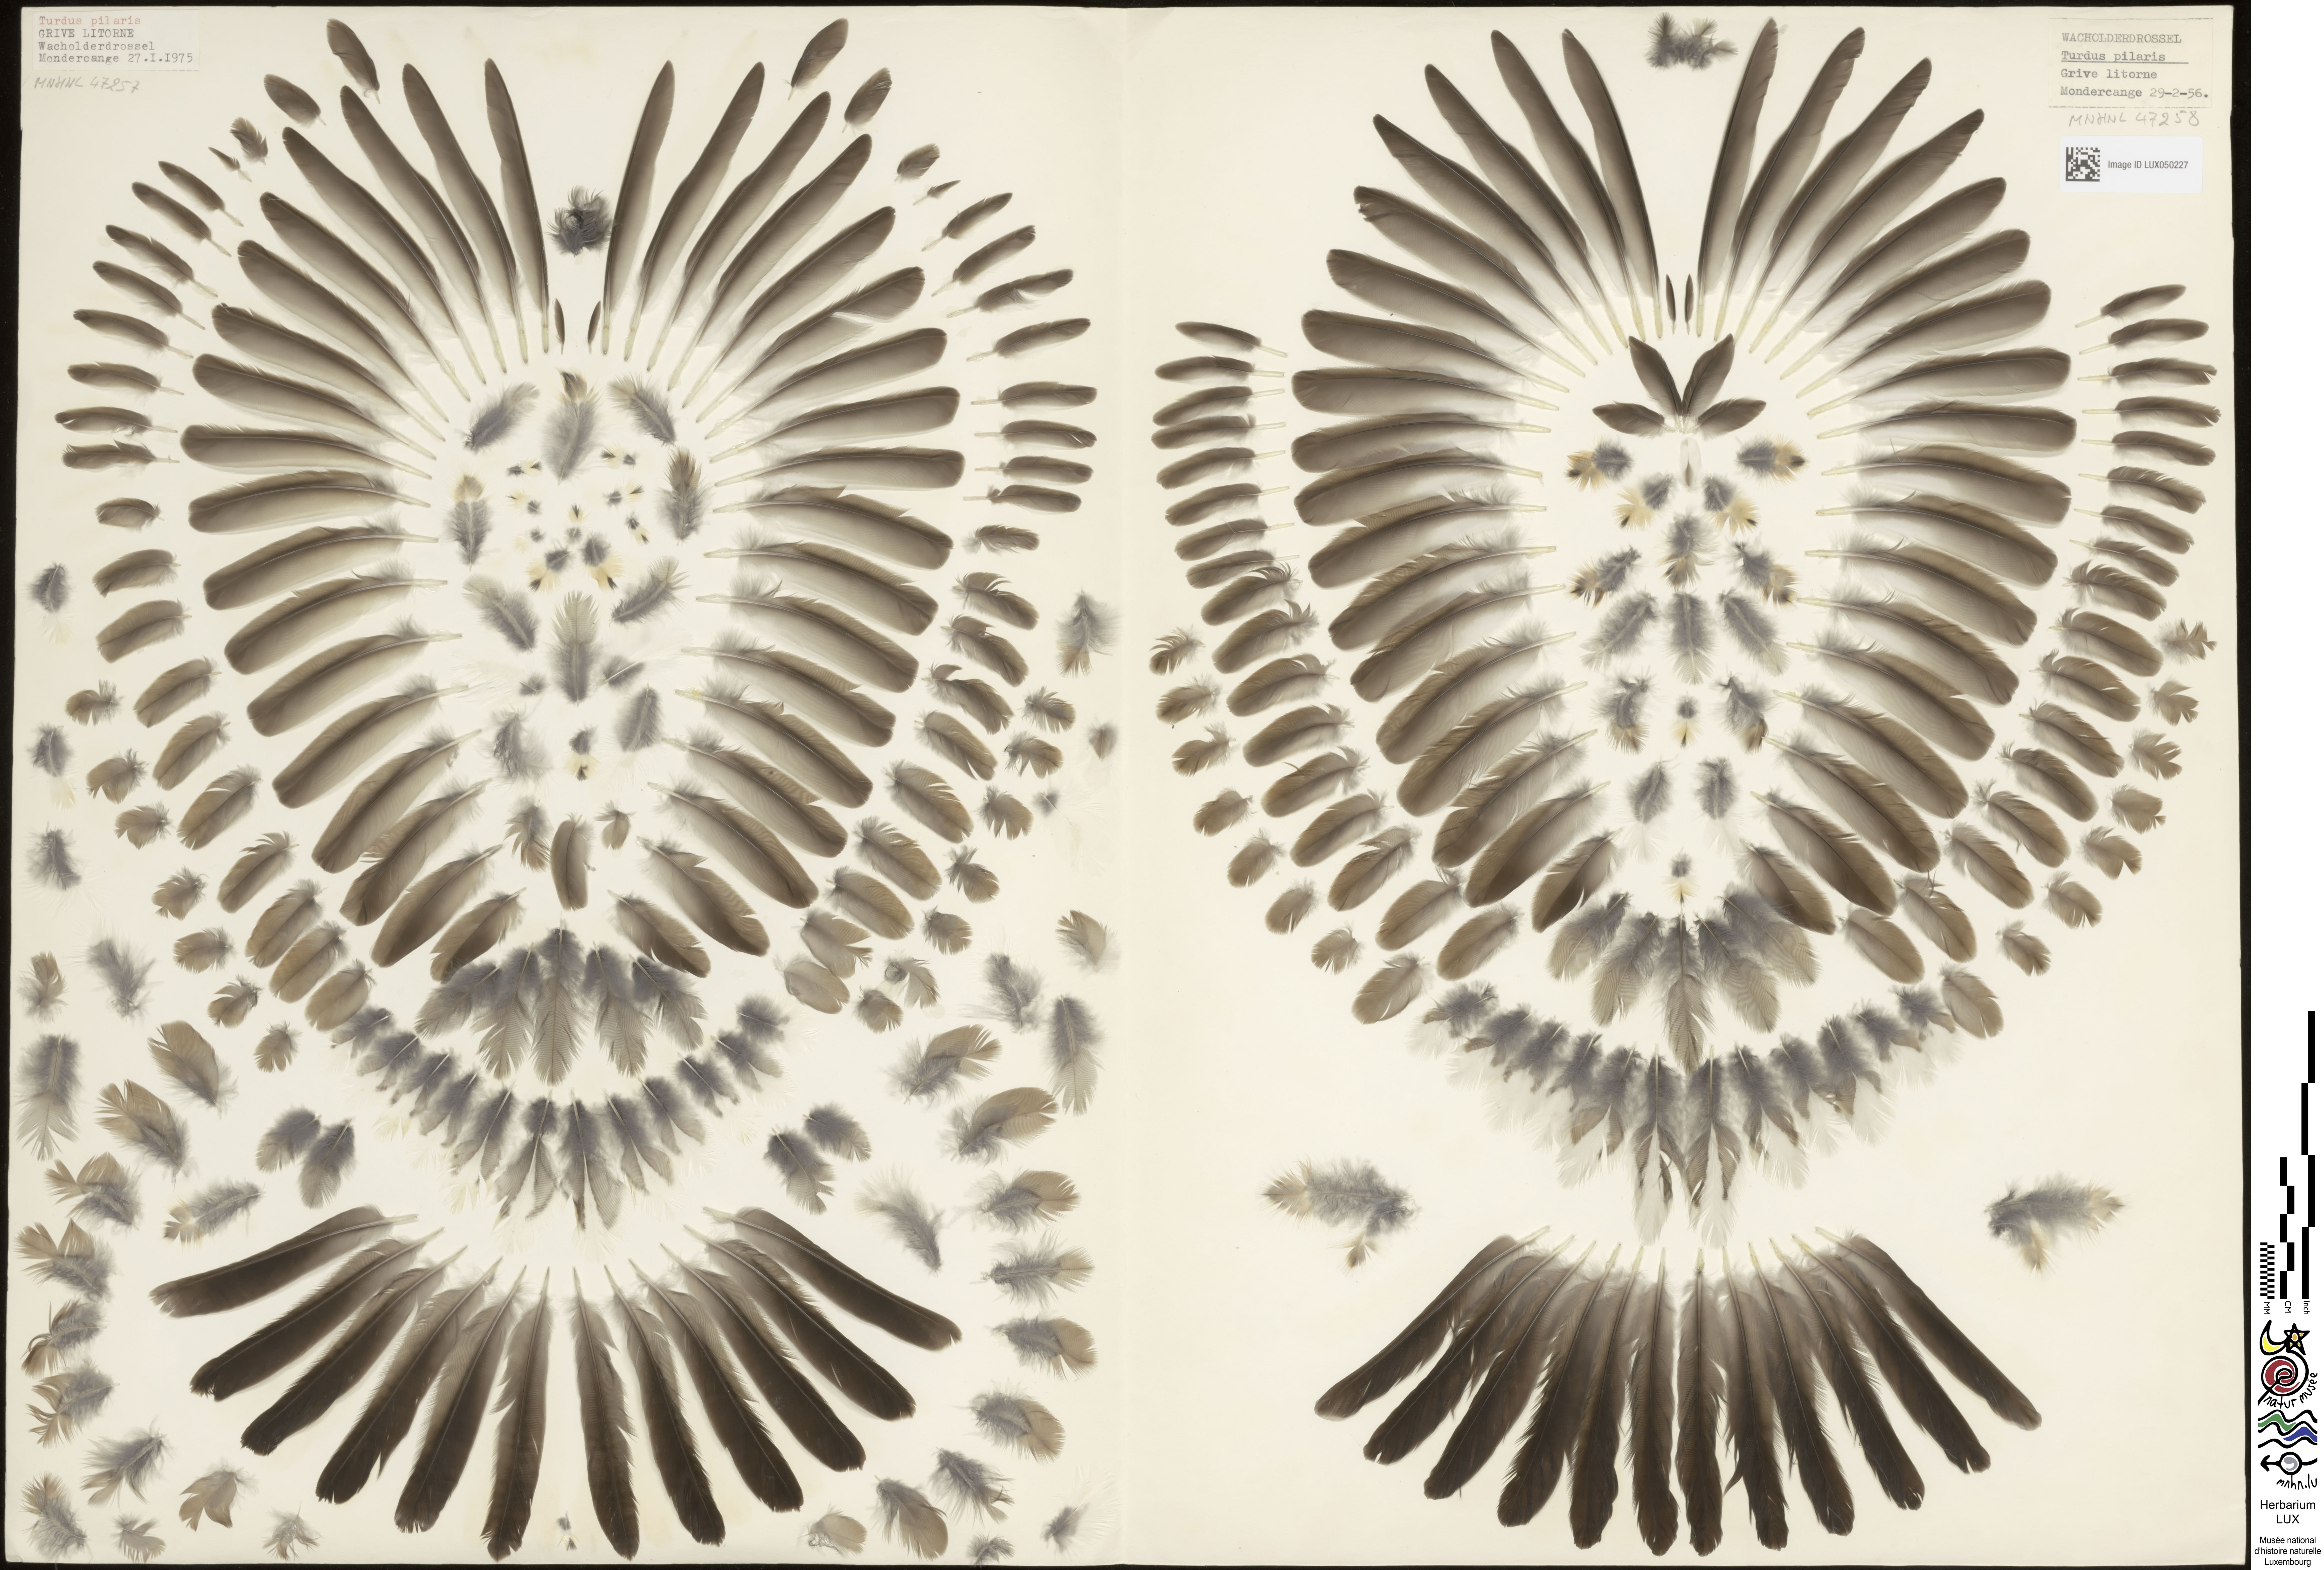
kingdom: Animalia
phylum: Chordata
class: Aves
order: Passeriformes
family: Turdidae
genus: Turdus
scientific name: Turdus pilaris
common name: Fieldfare
